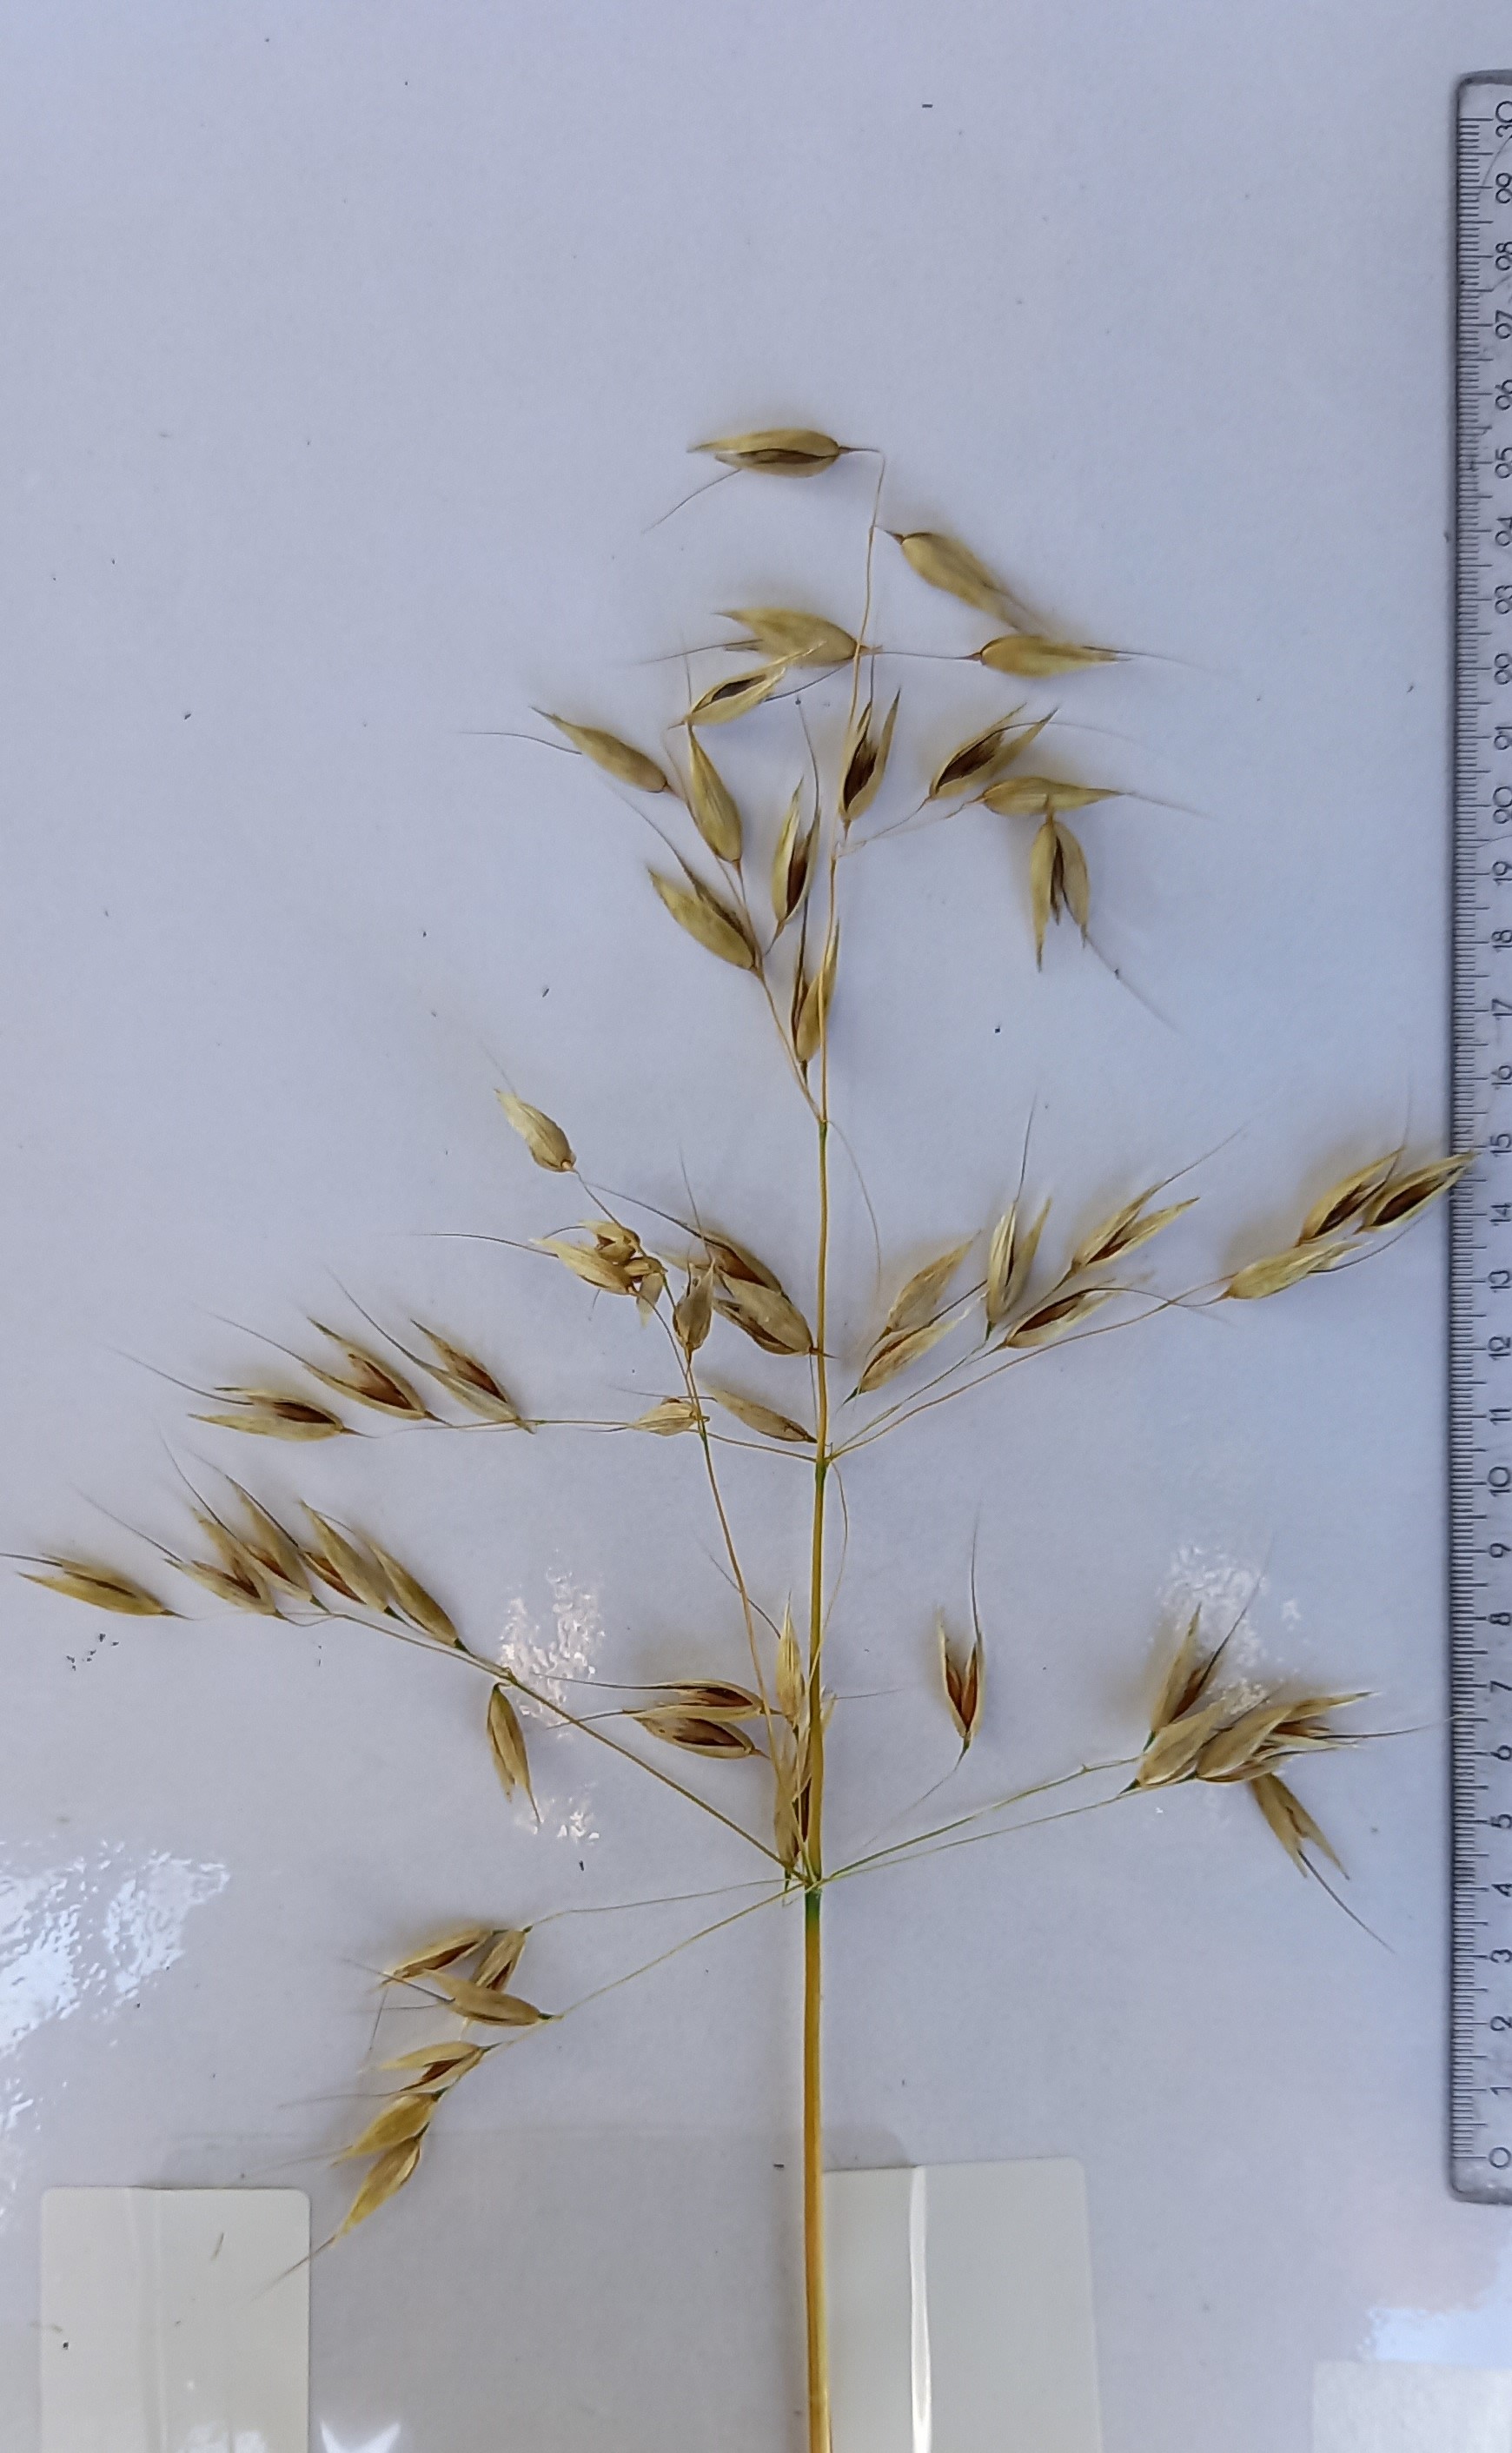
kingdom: Plantae
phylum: Tracheophyta
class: Liliopsida
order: Poales
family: Poaceae
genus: Avena
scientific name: Avena sativa
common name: Oat
